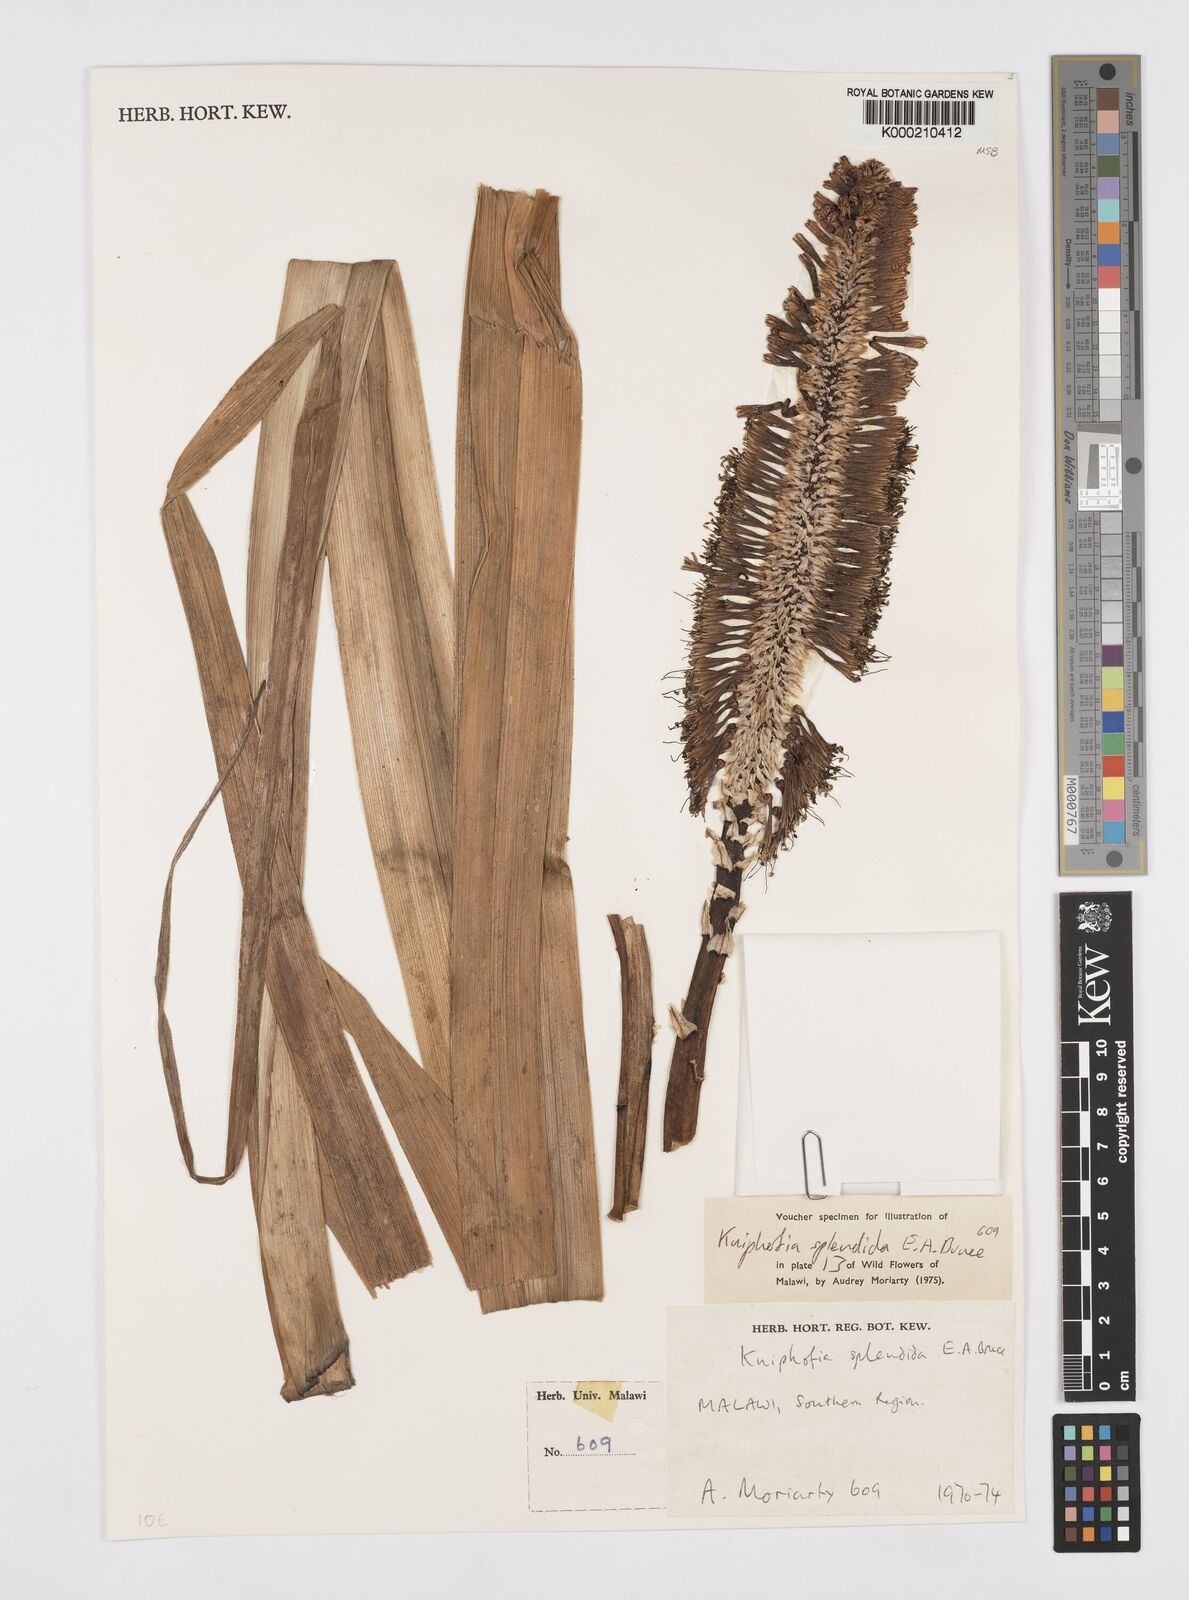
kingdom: Plantae
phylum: Tracheophyta
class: Liliopsida
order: Asparagales
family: Asphodelaceae
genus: Kniphofia
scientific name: Kniphofia splendida
